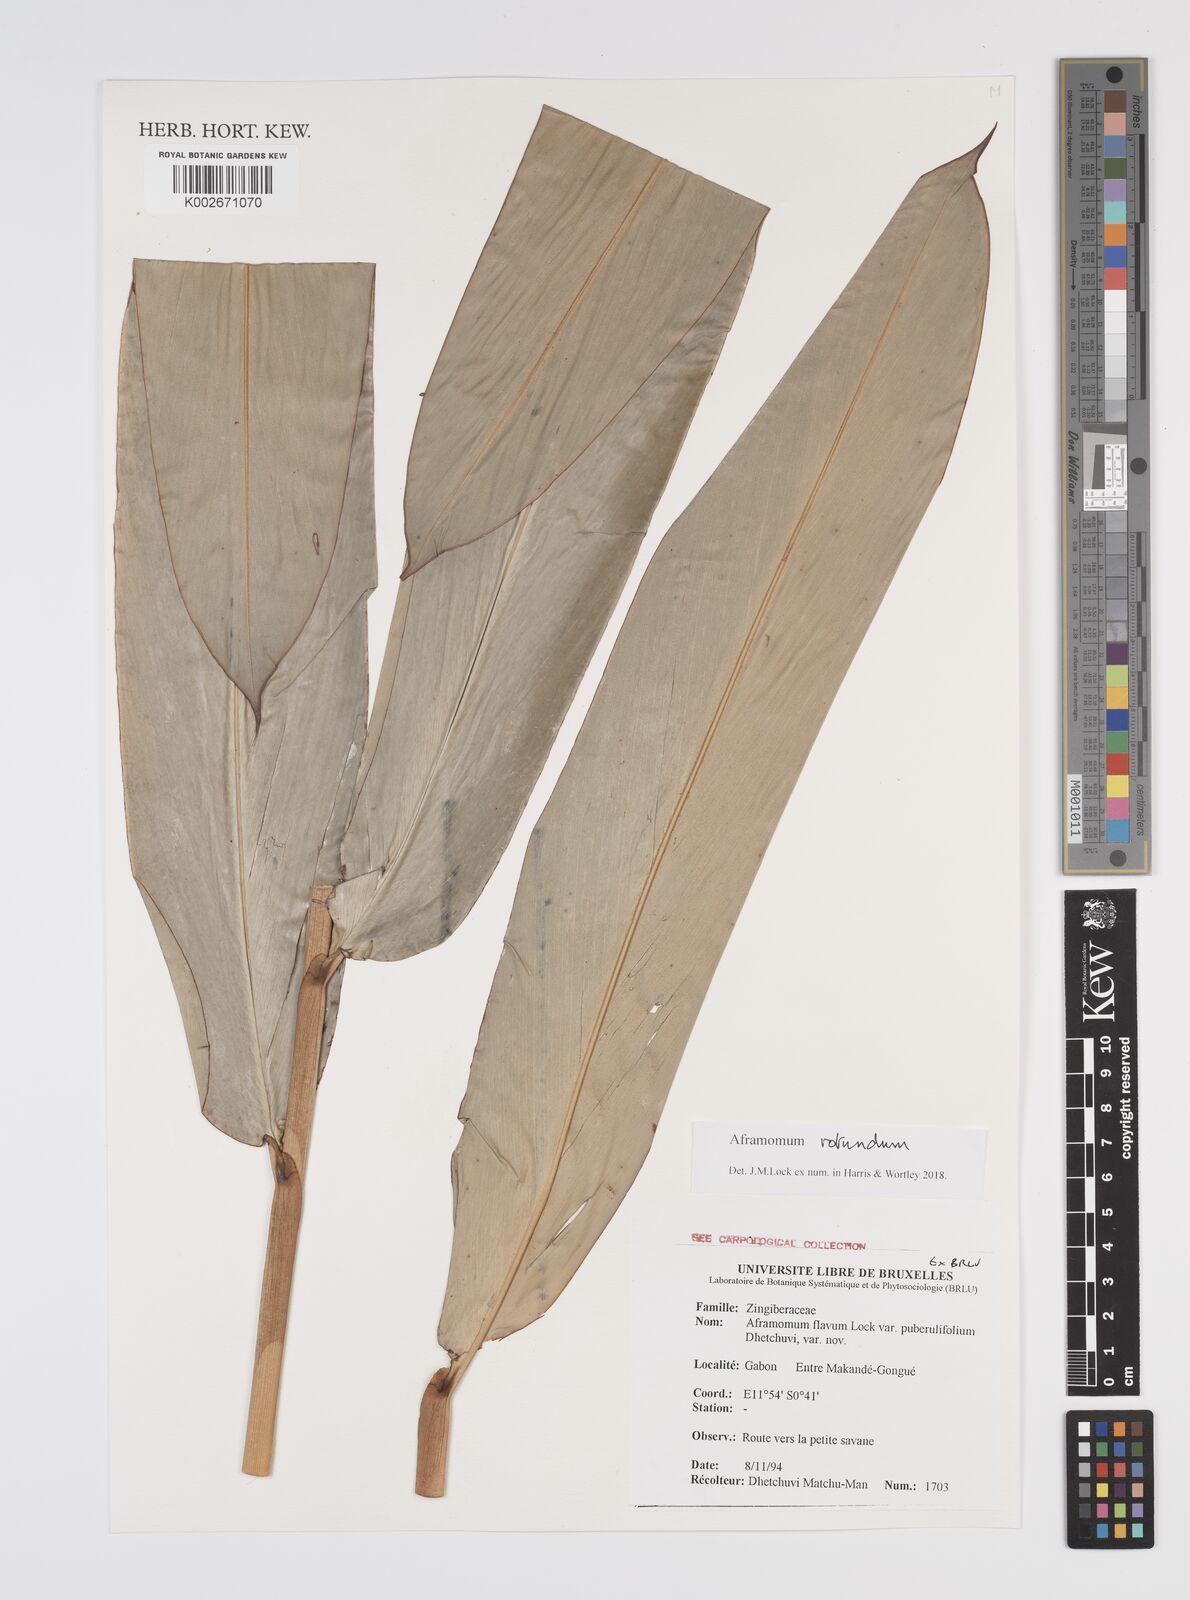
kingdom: Plantae
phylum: Tracheophyta
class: Liliopsida
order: Zingiberales
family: Zingiberaceae
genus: Aframomum
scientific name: Aframomum rotundum
